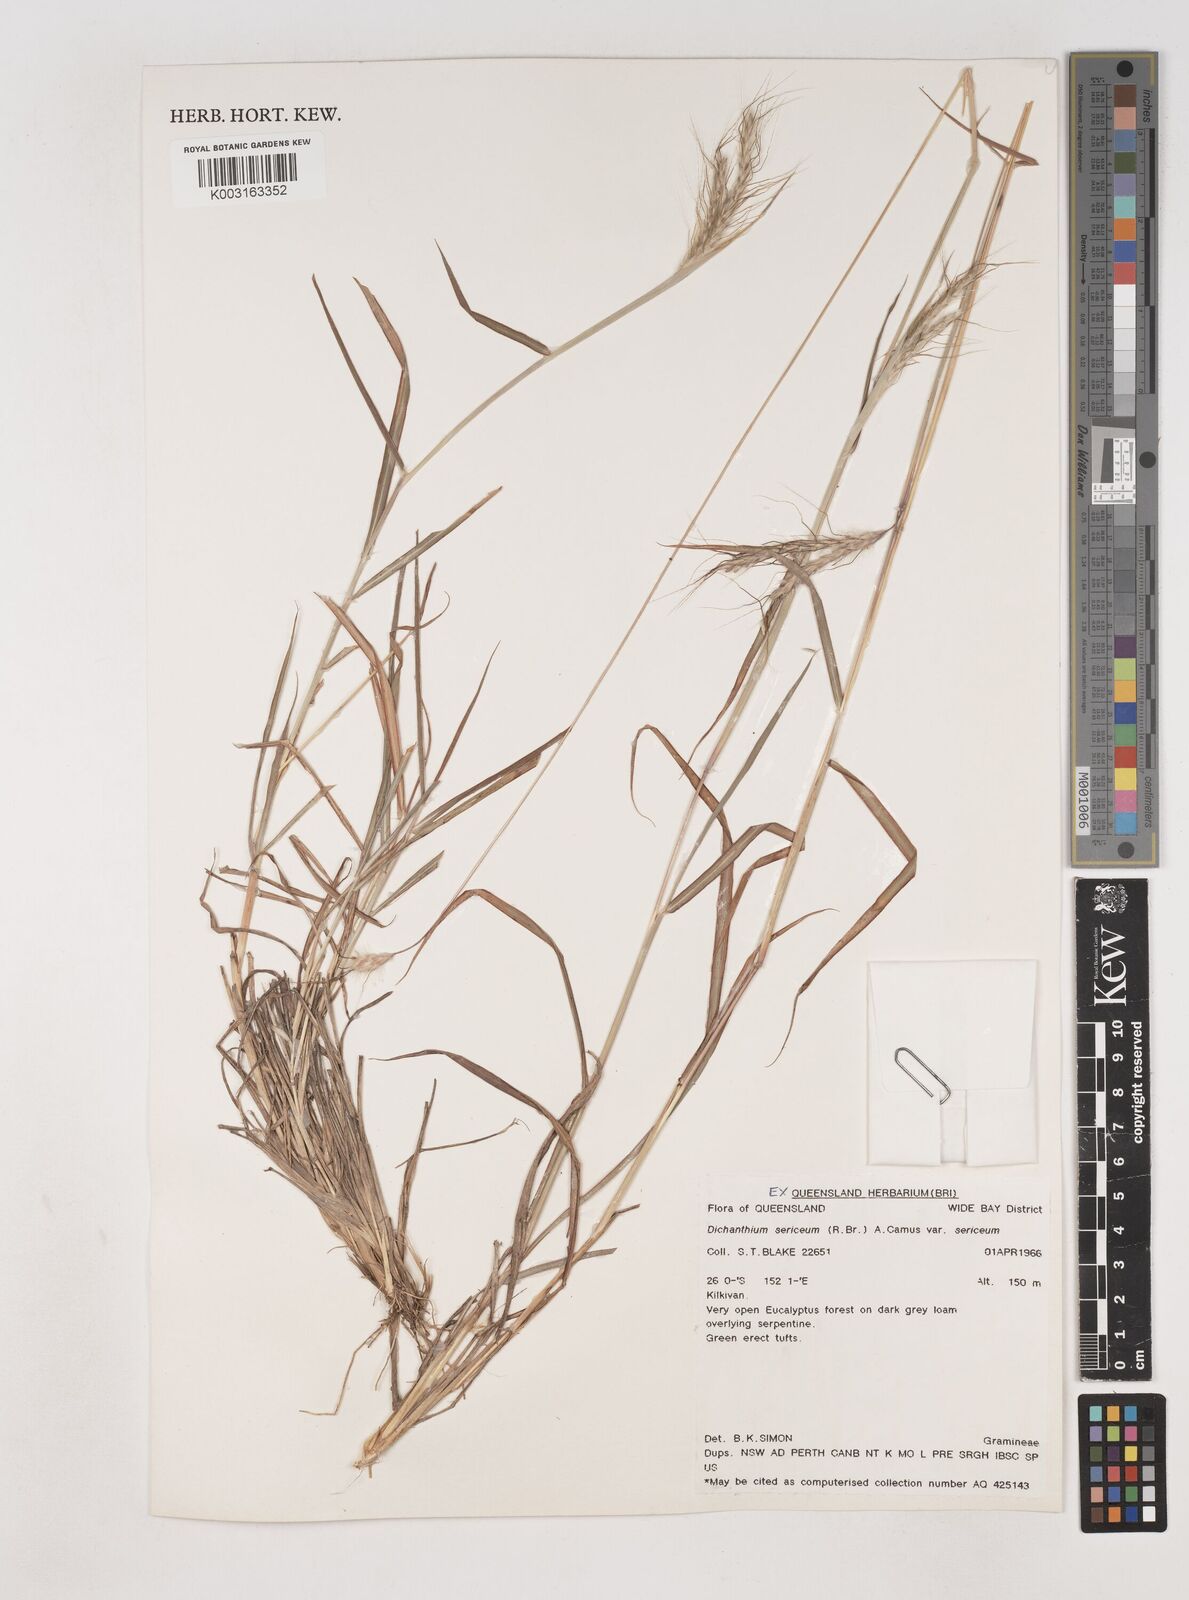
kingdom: Plantae
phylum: Tracheophyta
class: Liliopsida
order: Poales
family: Poaceae
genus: Dichanthium
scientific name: Dichanthium sericeum
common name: Silky bluestem
